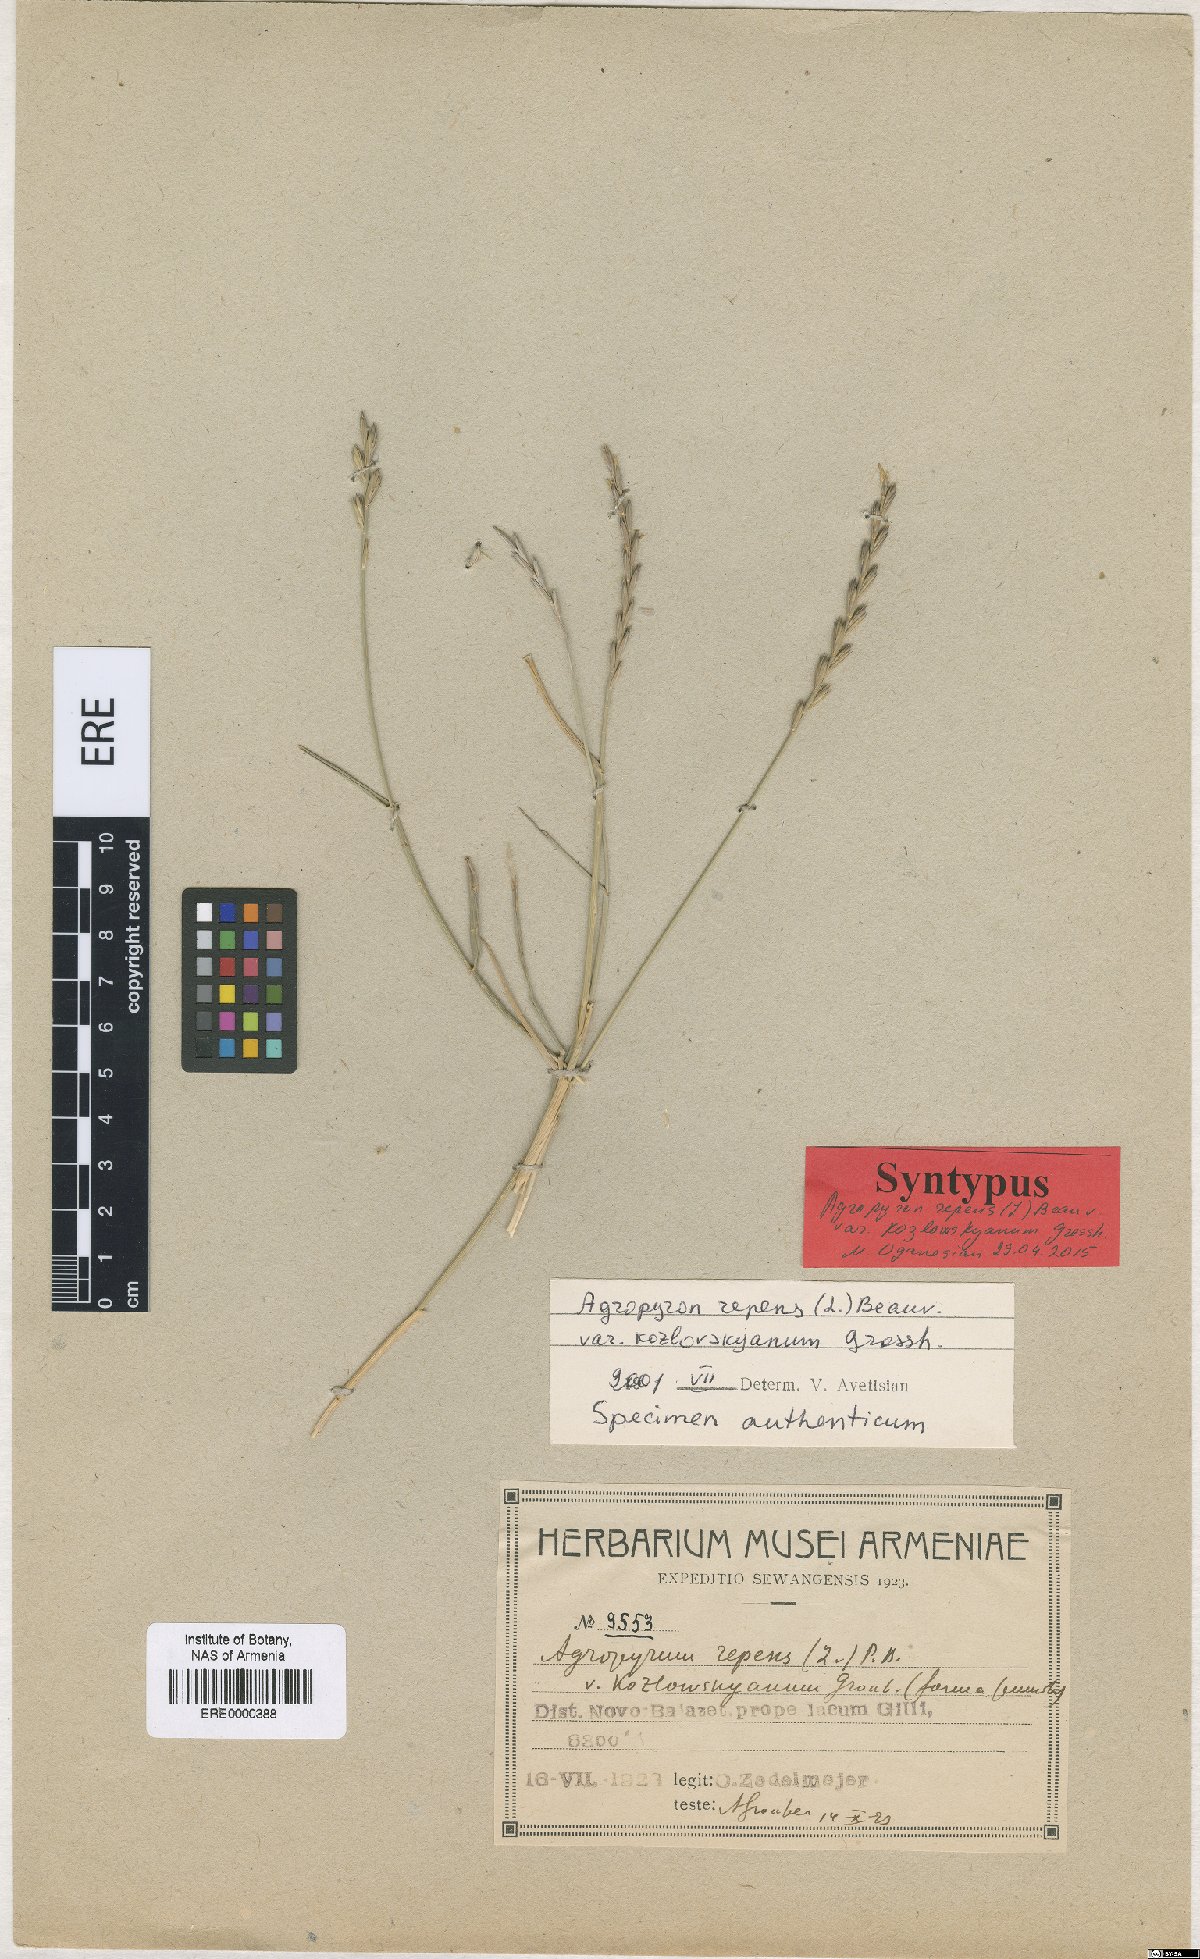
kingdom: Plantae
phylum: Tracheophyta
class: Liliopsida
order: Poales
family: Poaceae
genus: Elymus
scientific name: Elymus repens
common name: Quackgrass
